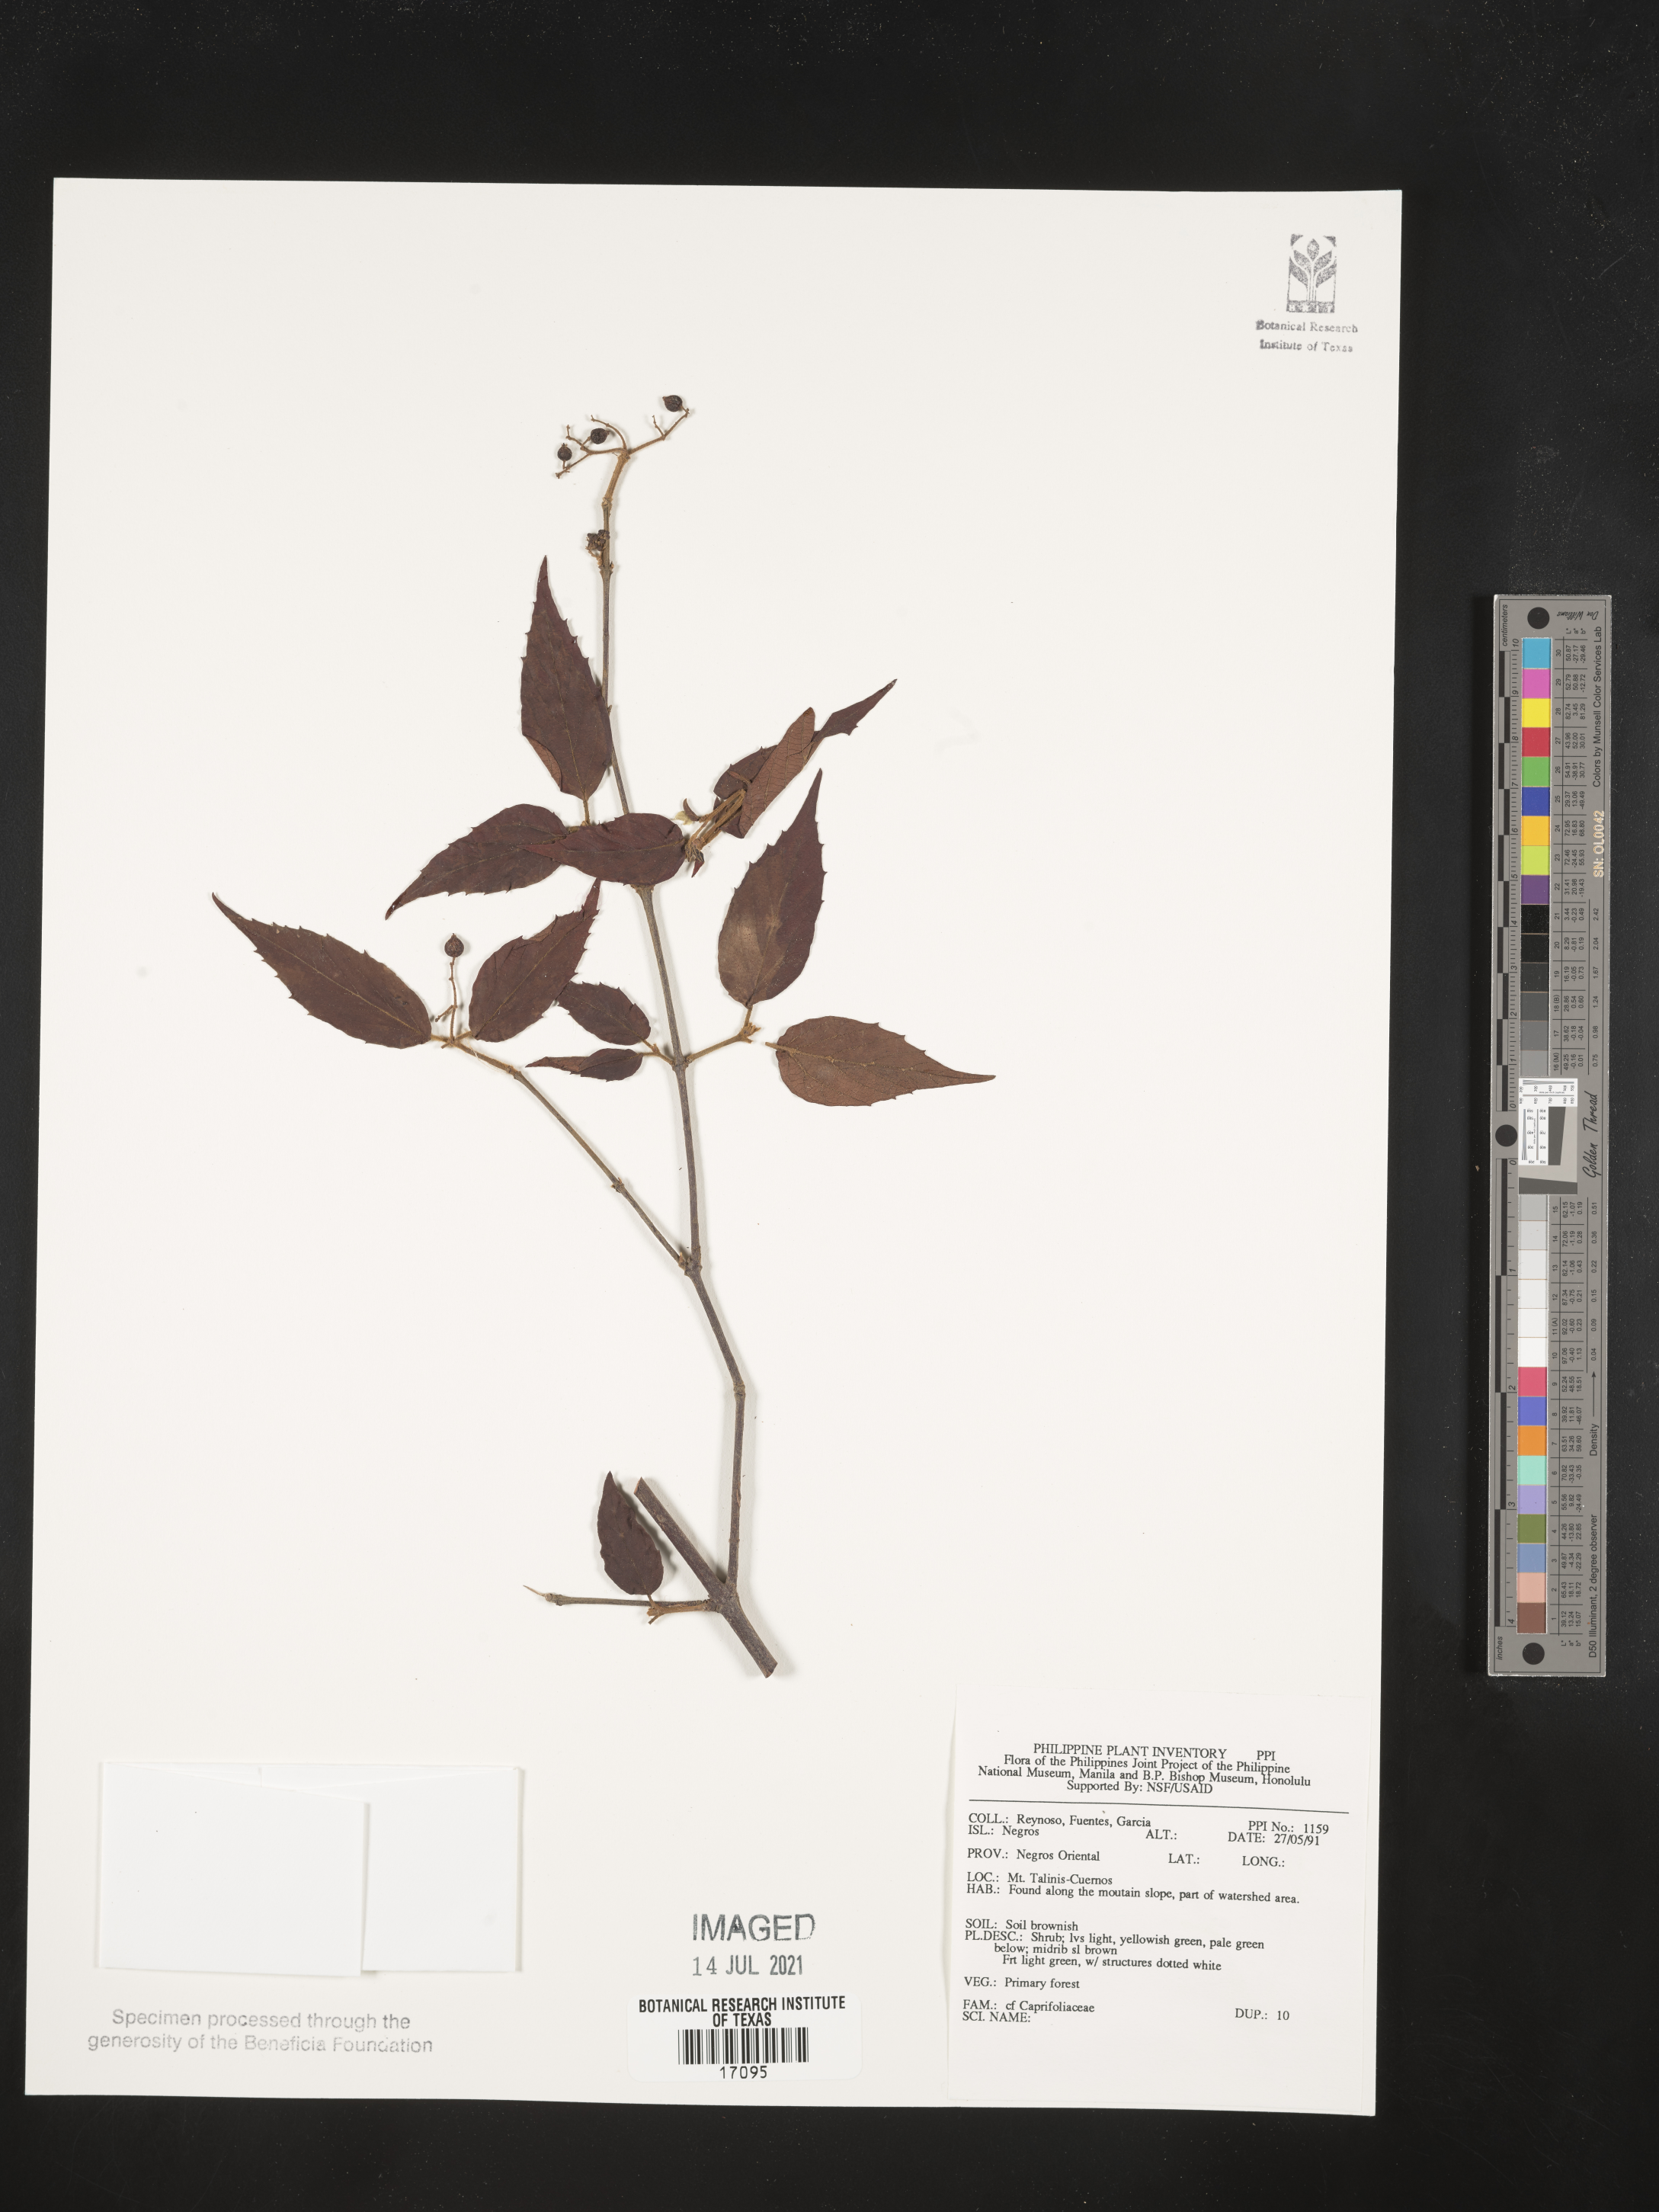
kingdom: Plantae
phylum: Tracheophyta
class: Magnoliopsida
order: Dipsacales
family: Caprifoliaceae
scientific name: Caprifoliaceae
